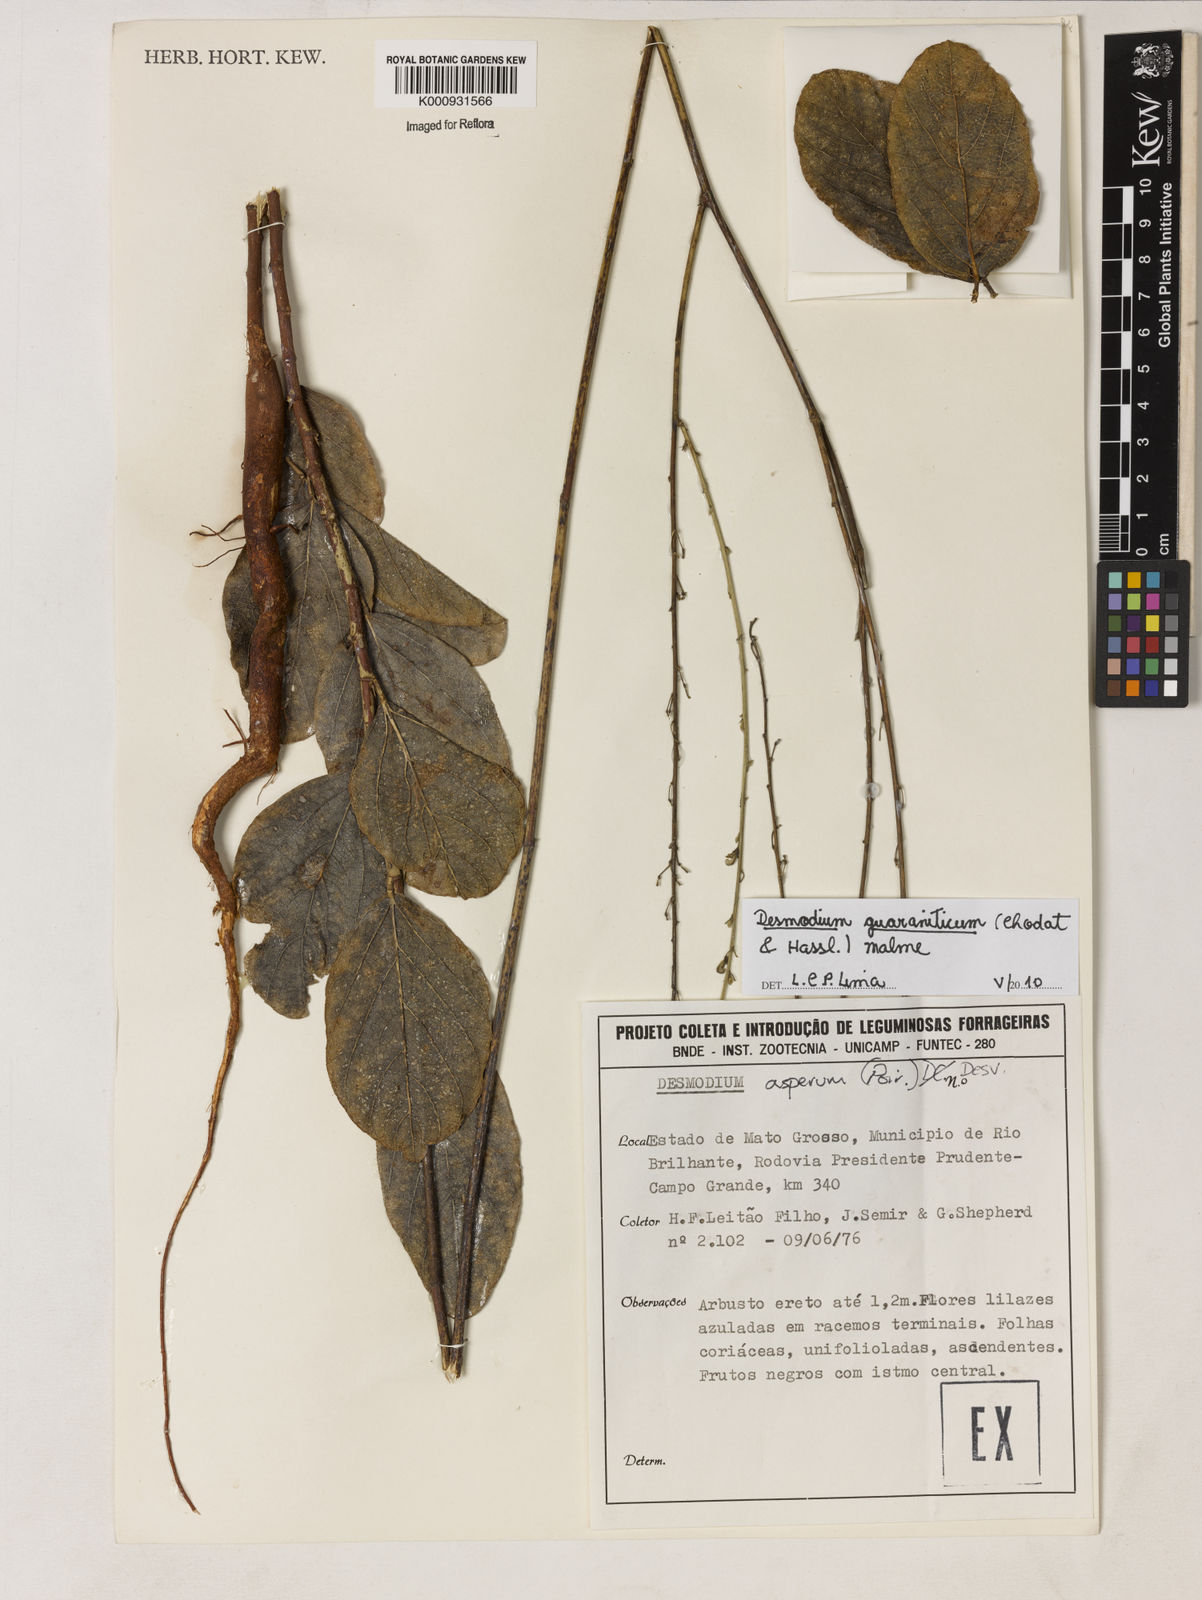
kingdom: Plantae
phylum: Tracheophyta
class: Magnoliopsida
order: Fabales
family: Fabaceae
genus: Desmodium
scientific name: Desmodium guaraniticum
